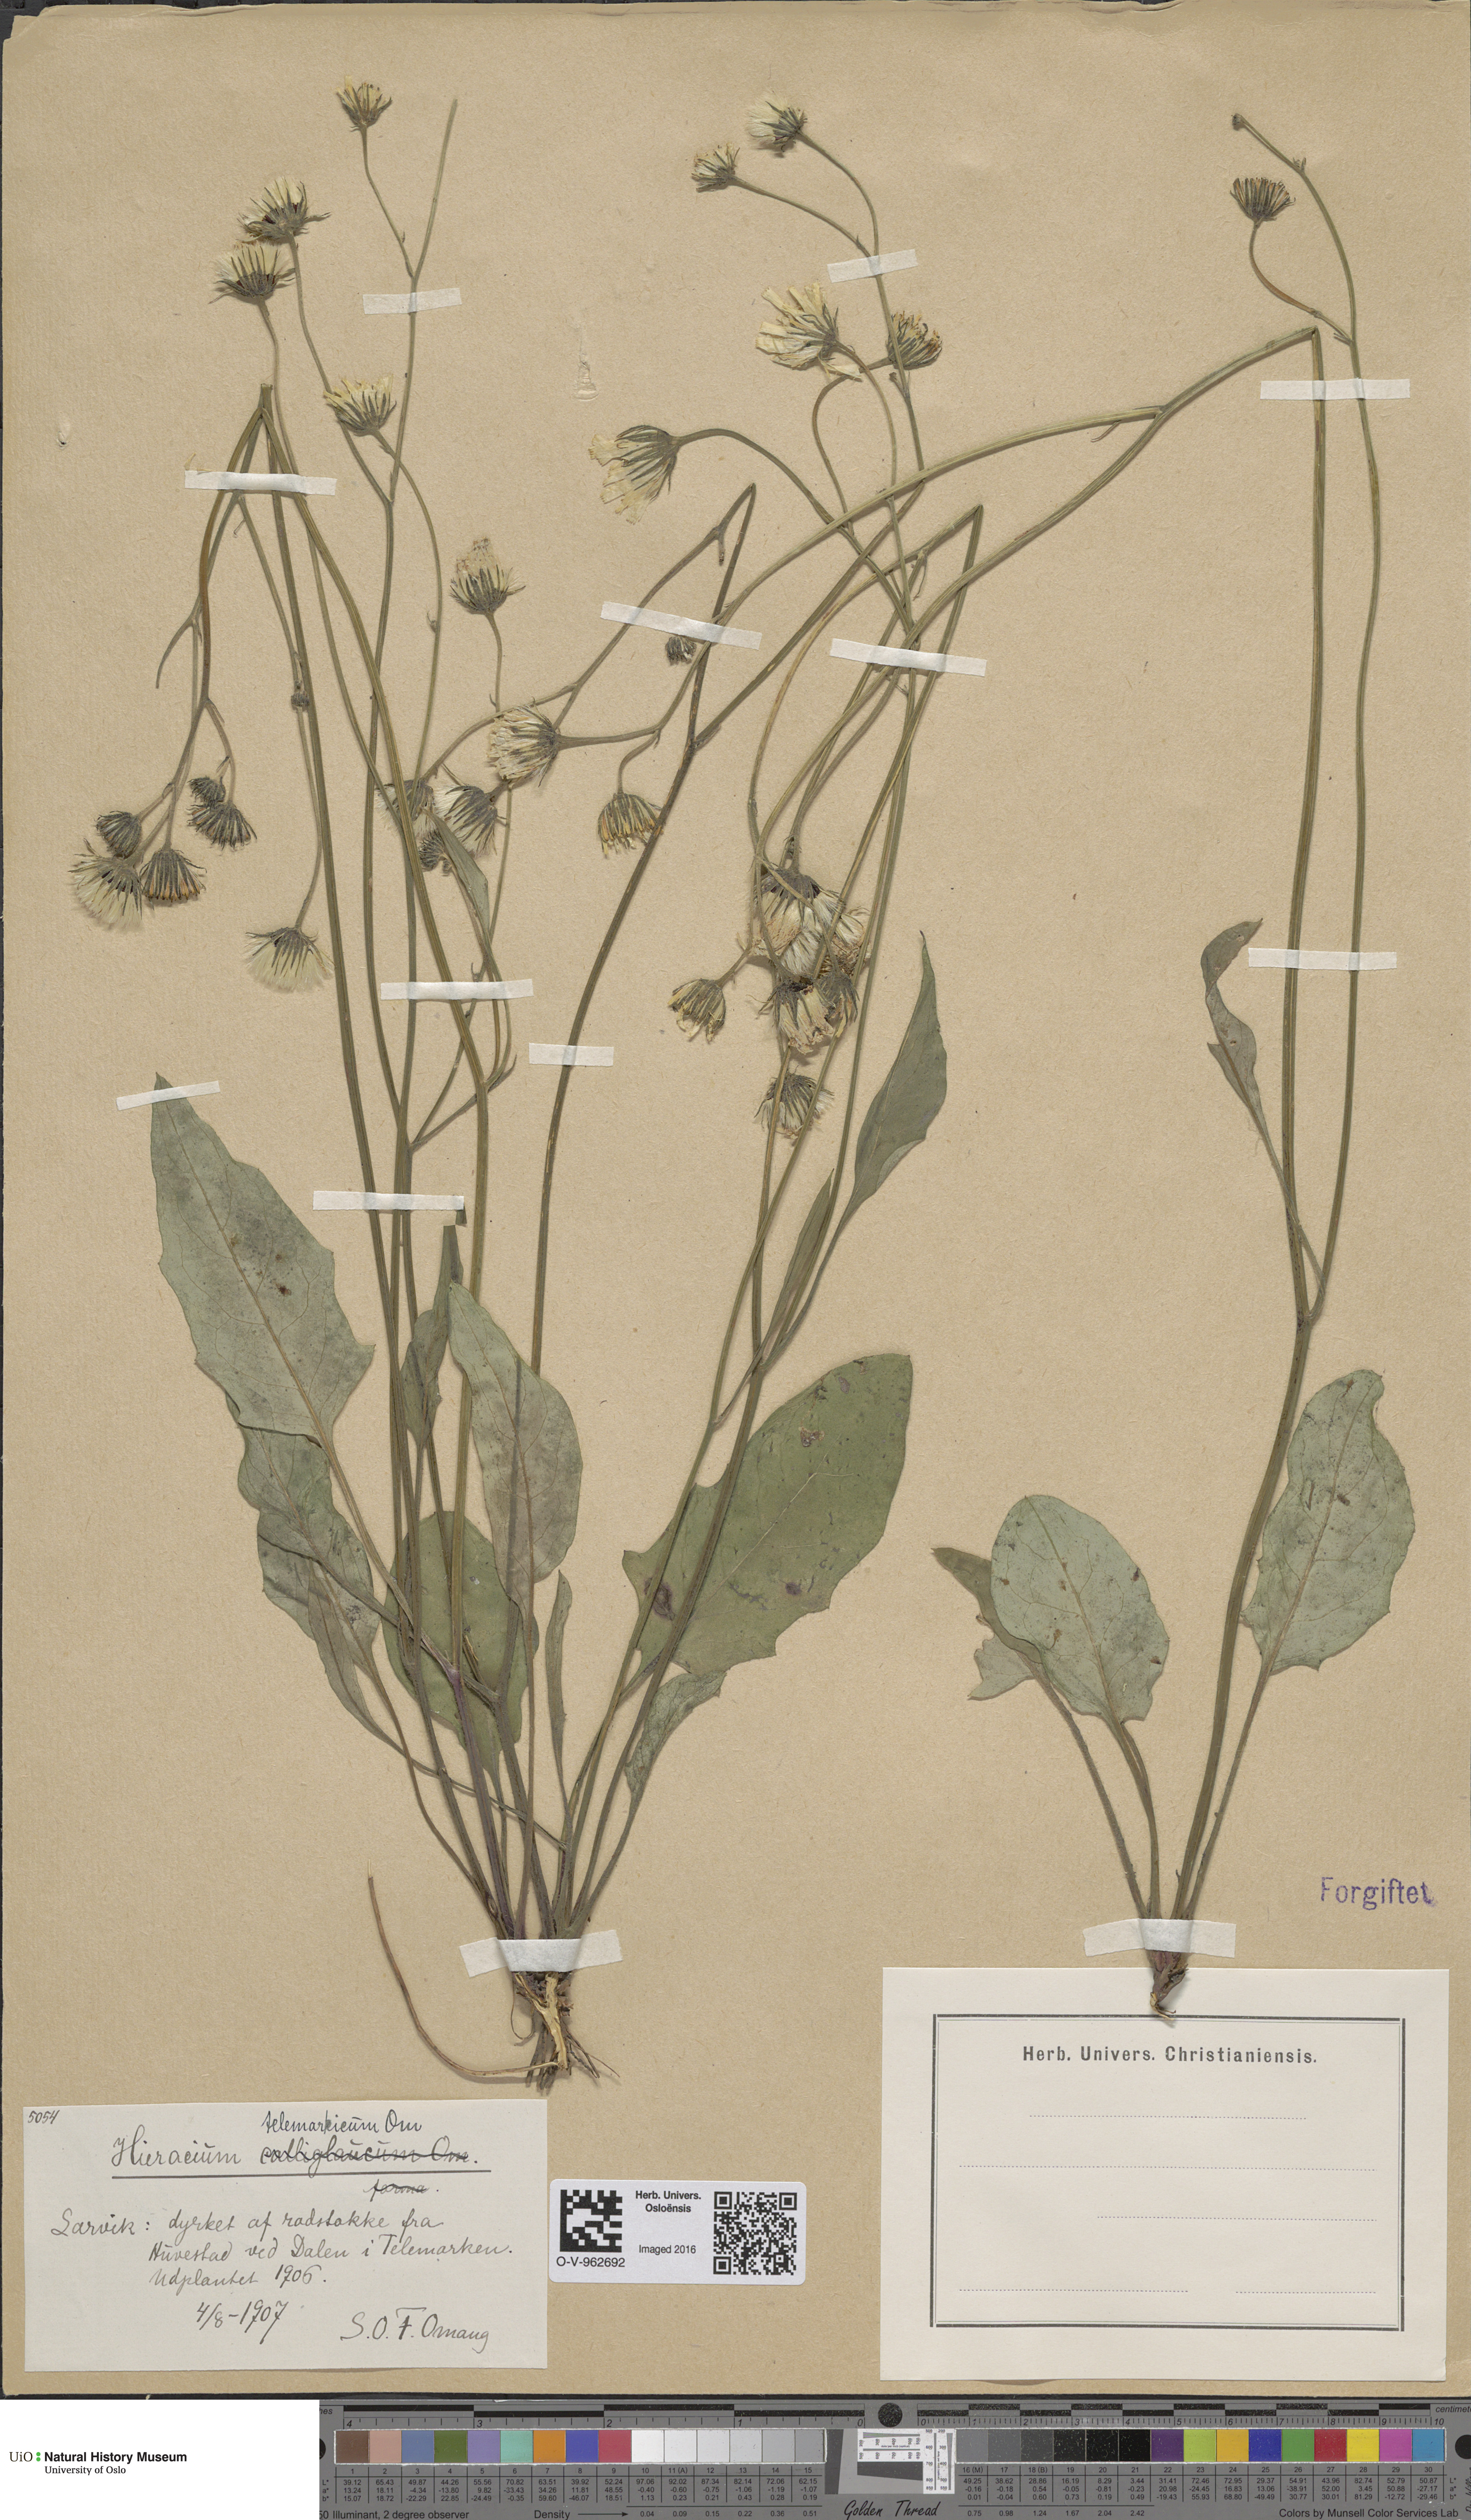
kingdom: Plantae
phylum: Tracheophyta
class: Magnoliopsida
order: Asterales
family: Asteraceae
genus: Hieracium
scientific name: Hieracium
